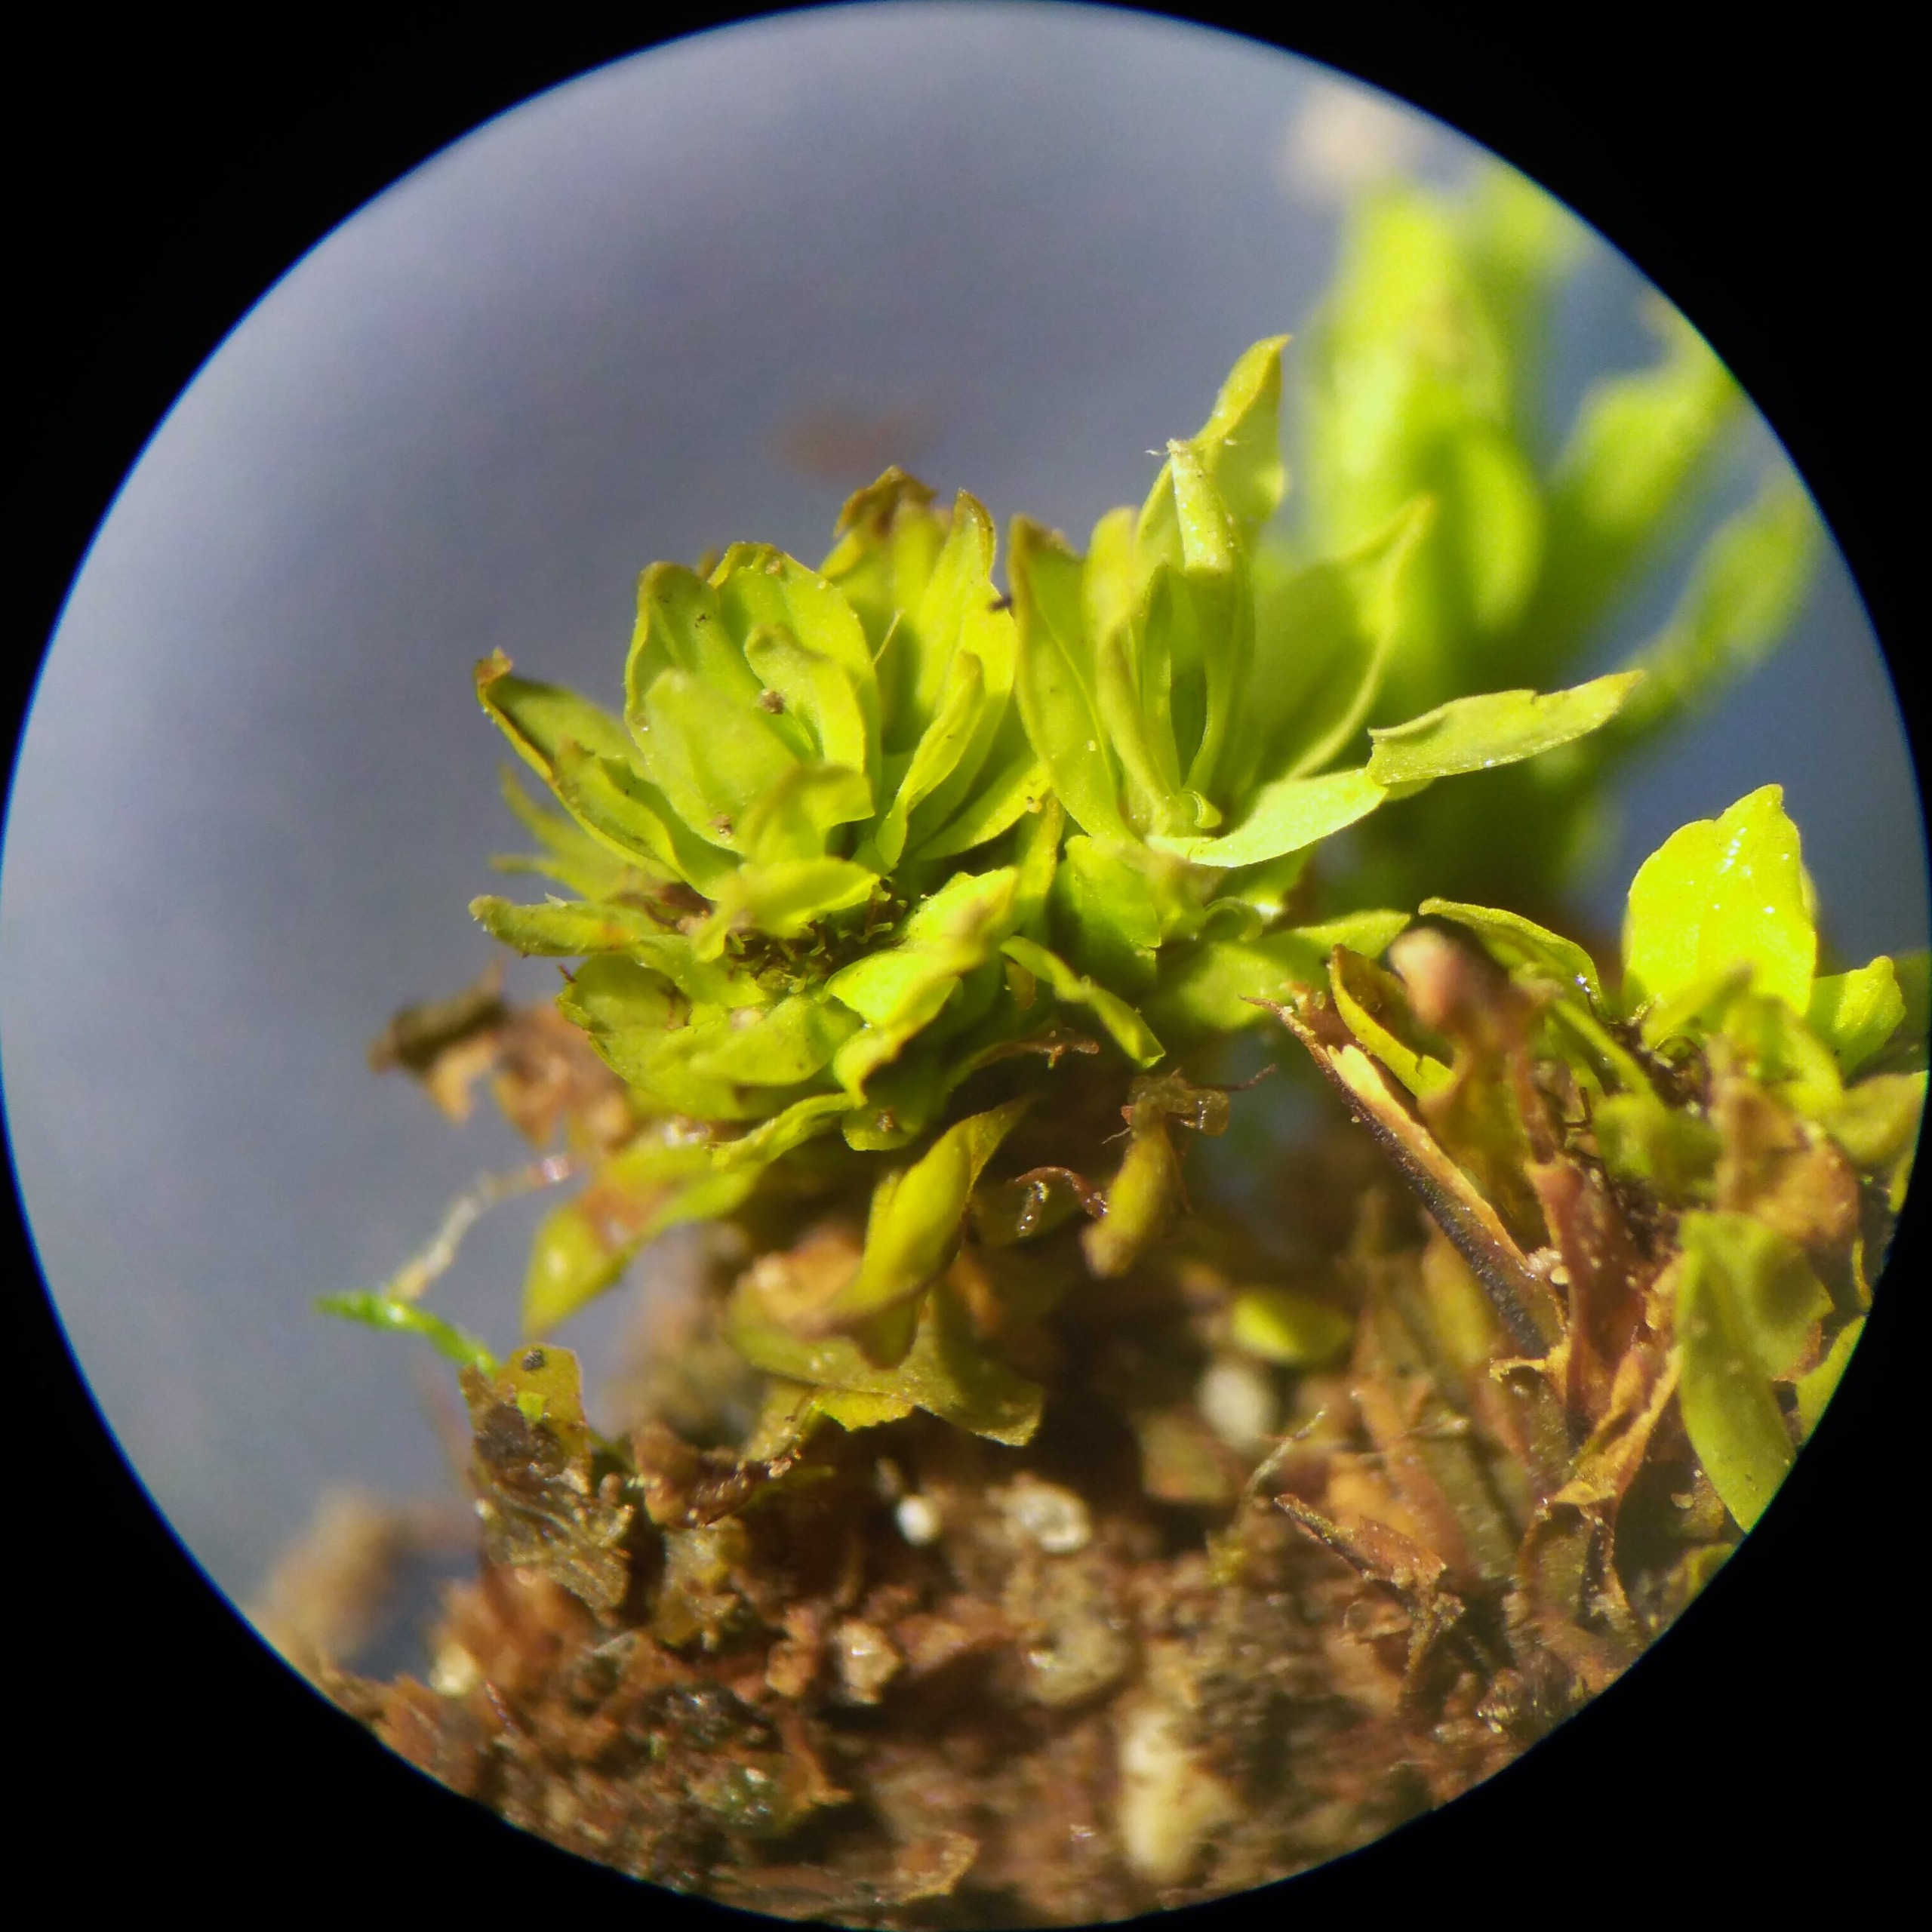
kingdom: Plantae
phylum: Bryophyta
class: Bryopsida
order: Encalyptales
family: Encalyptaceae
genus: Encalypta
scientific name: Encalypta streptocarpa
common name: Stor klokkehætte
